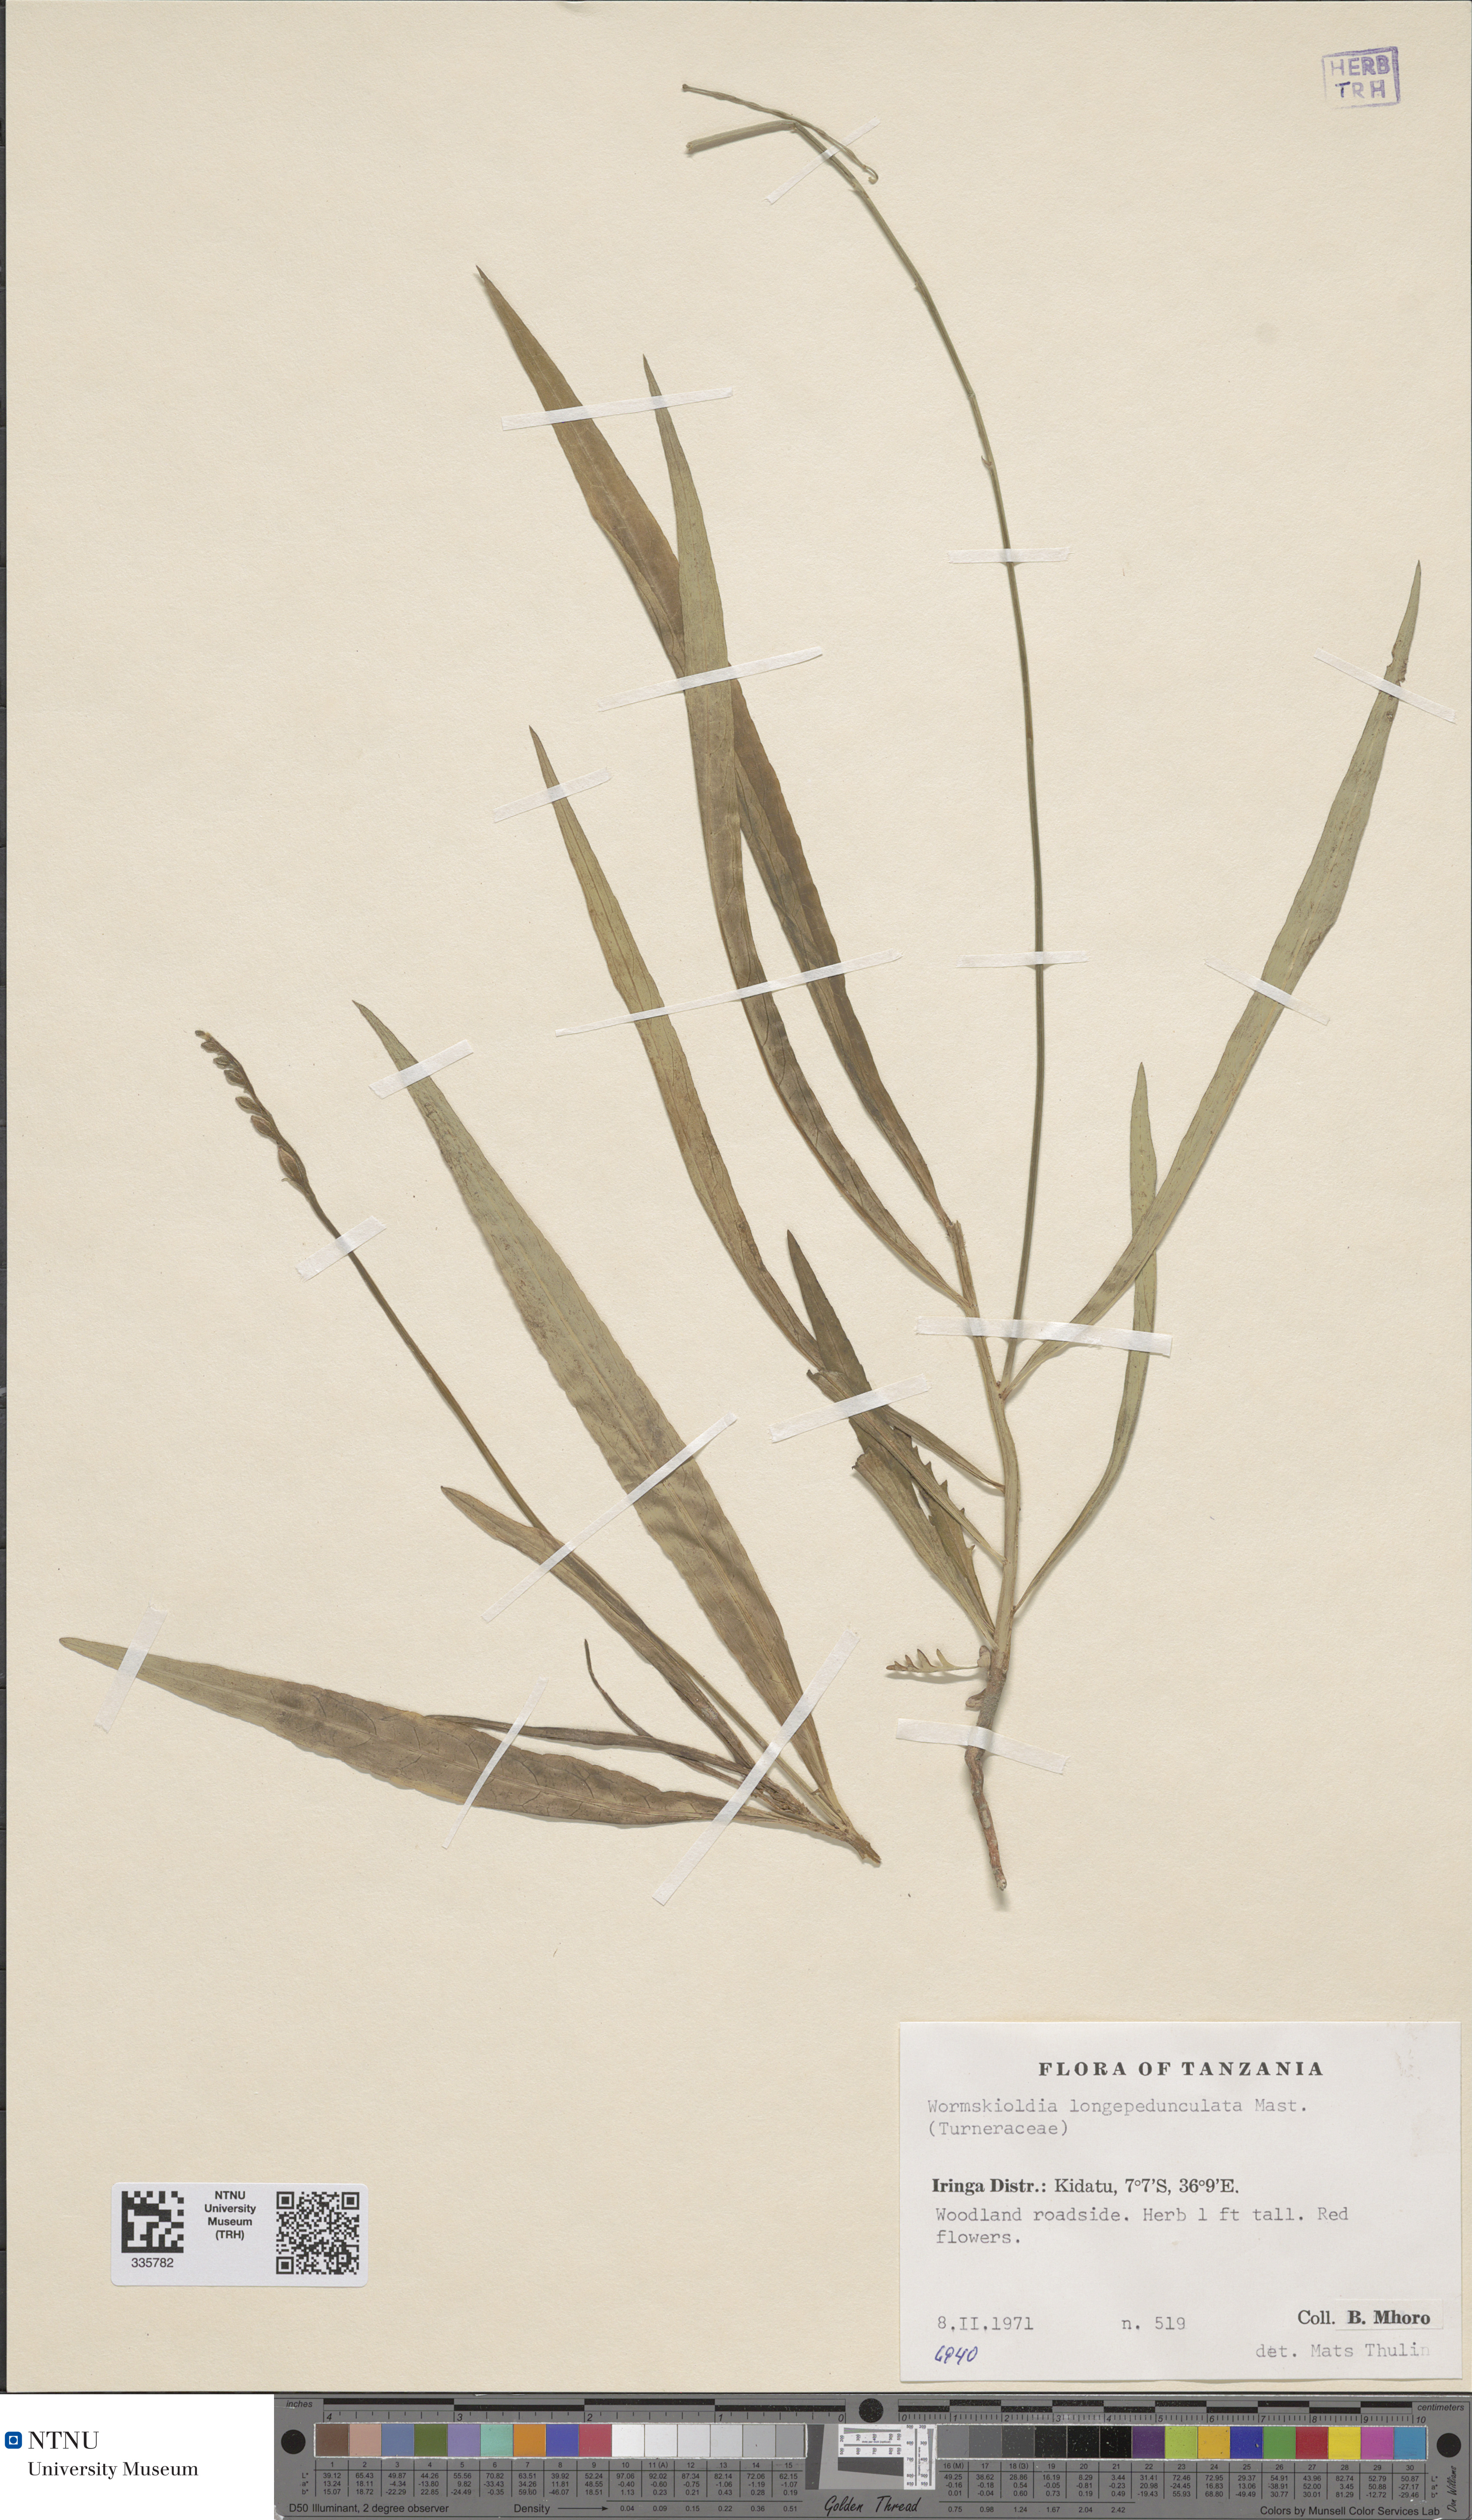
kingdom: Plantae
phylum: Tracheophyta
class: Magnoliopsida
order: Malpighiales
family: Turneraceae
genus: Tricliceras
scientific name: Tricliceras longepedunculatum
